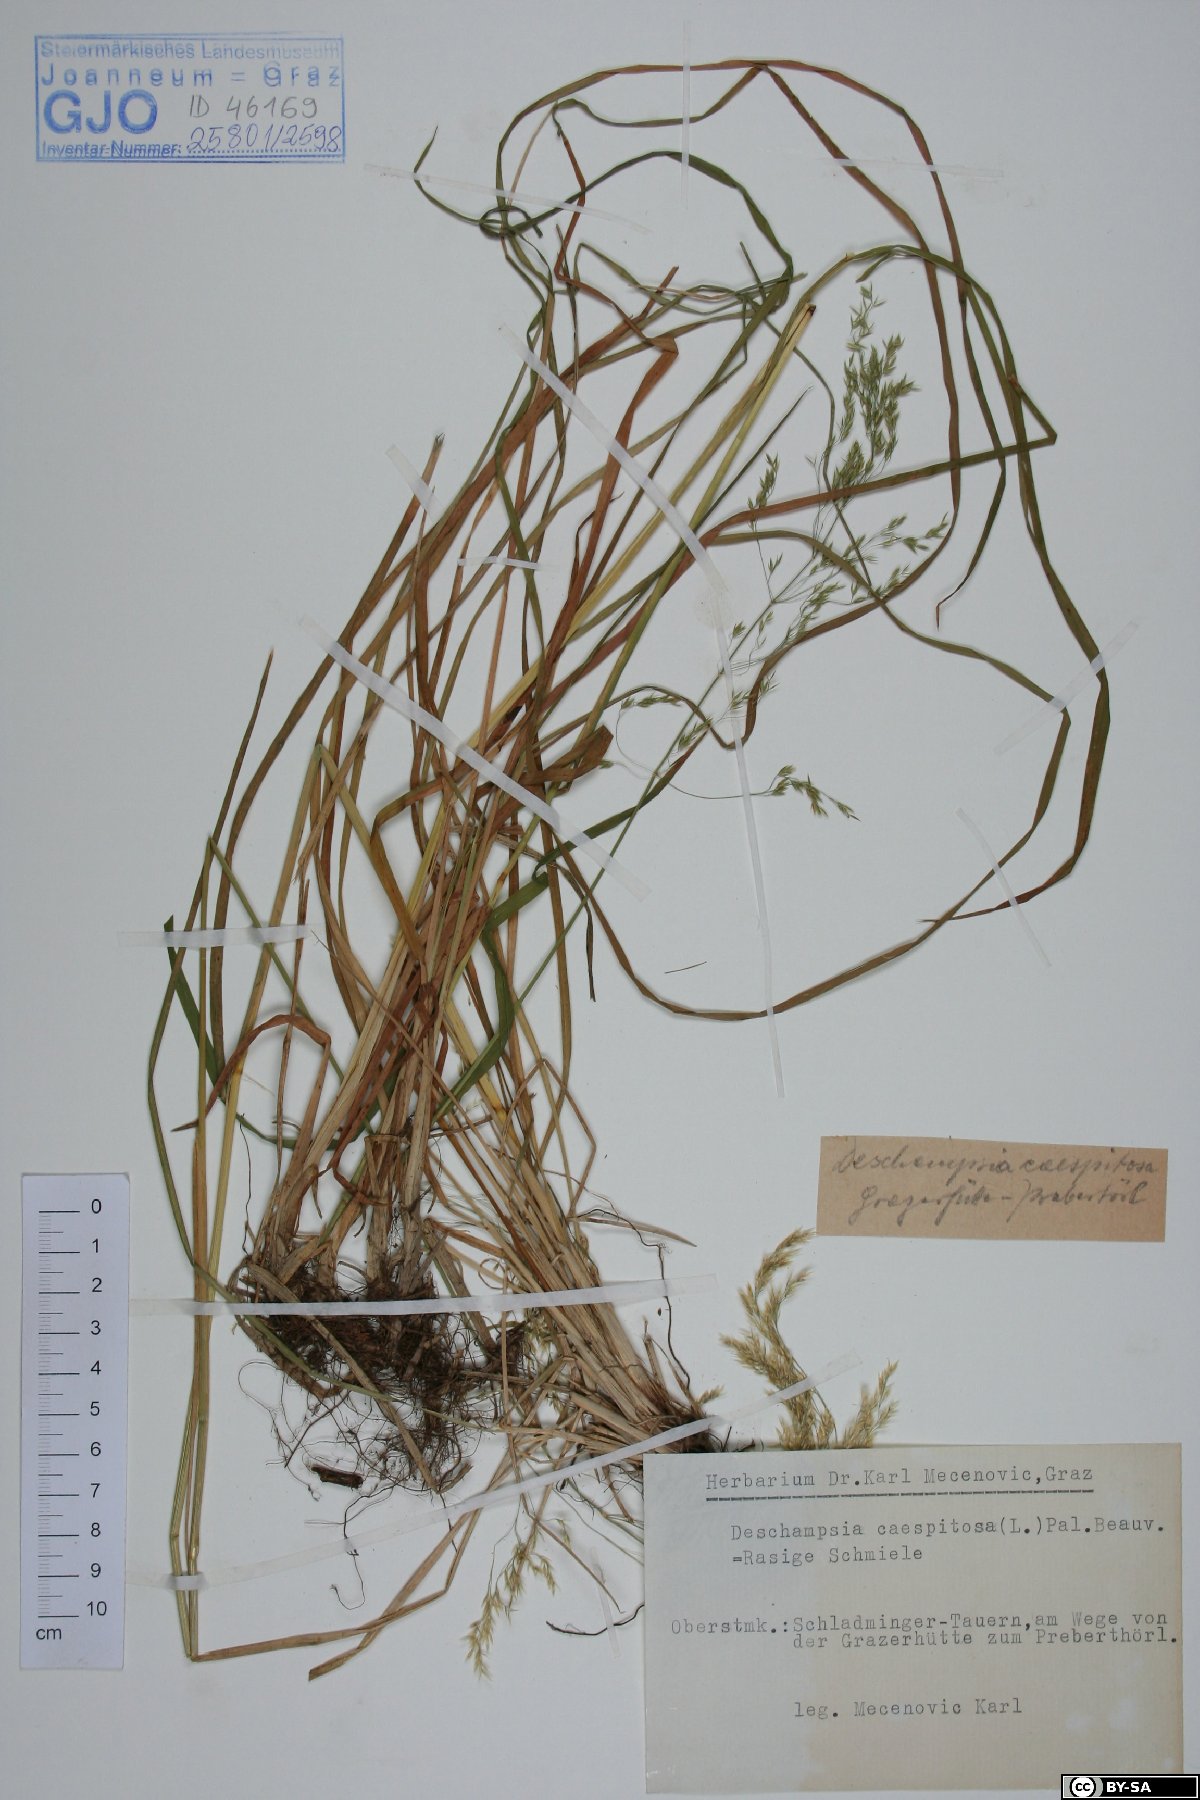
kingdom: Plantae
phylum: Tracheophyta
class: Liliopsida
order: Poales
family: Poaceae
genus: Deschampsia
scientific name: Deschampsia cespitosa
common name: Tufted hair-grass
